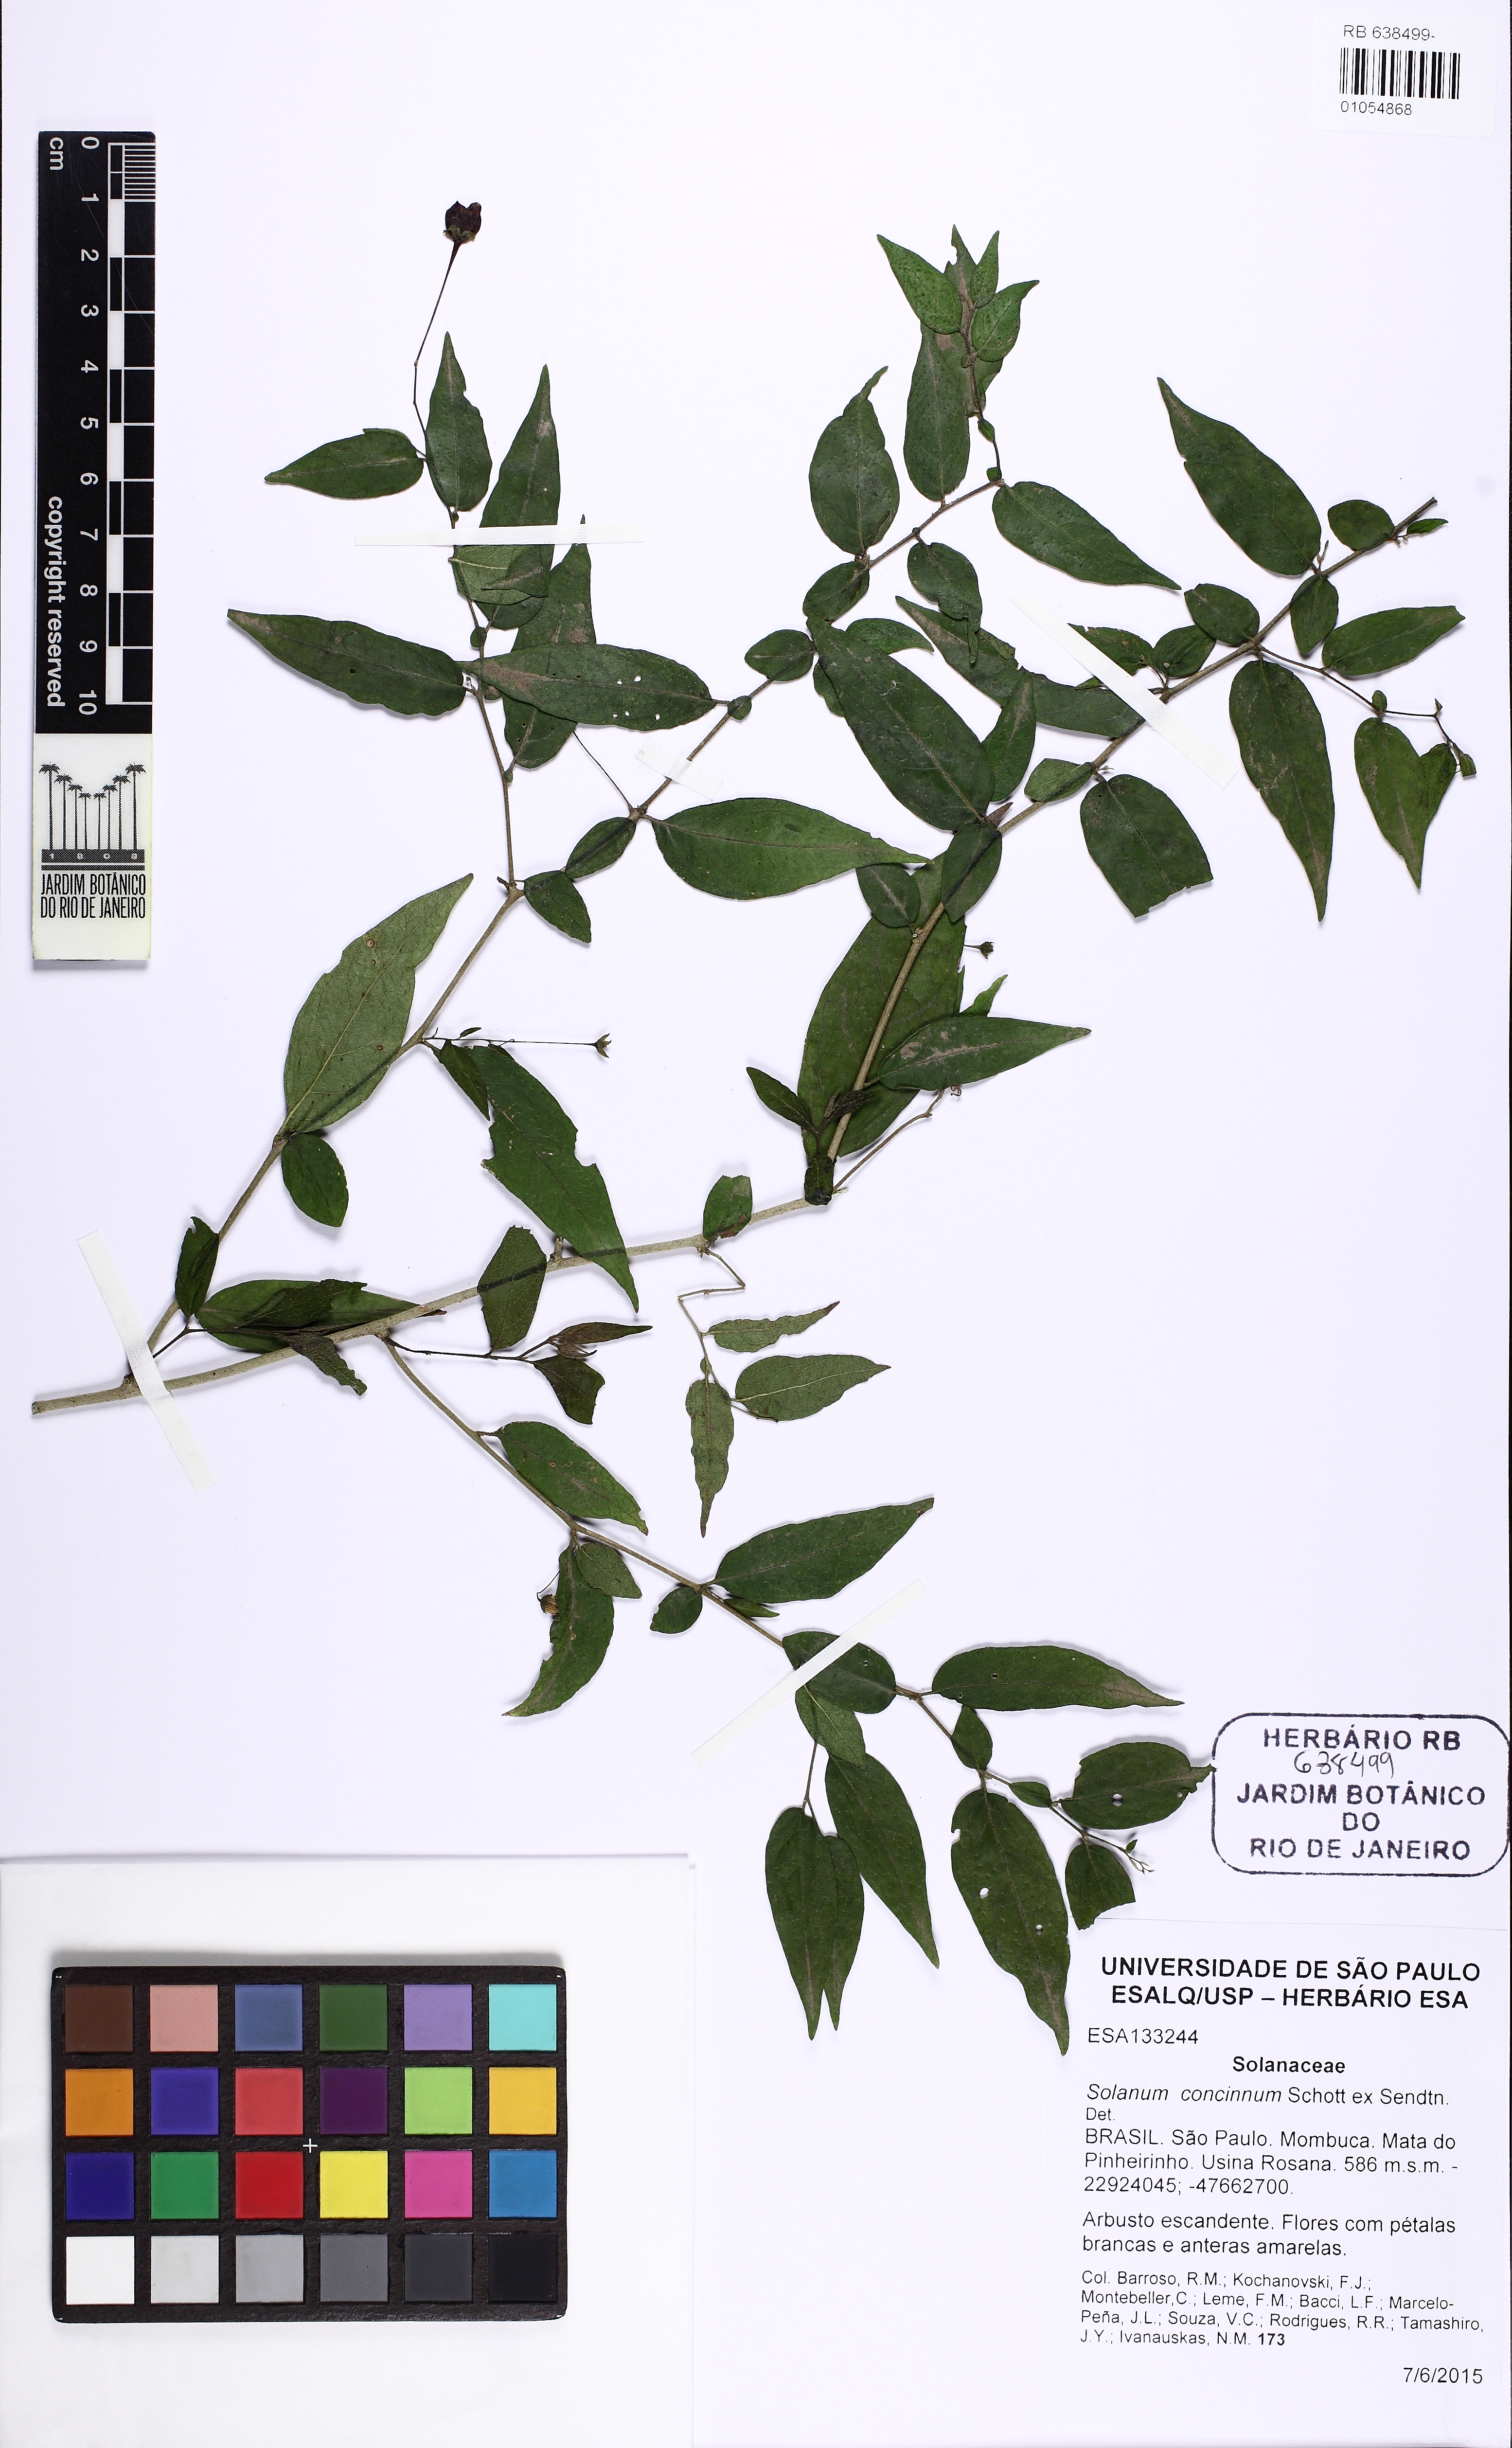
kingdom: Plantae
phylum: Tracheophyta
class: Magnoliopsida
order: Solanales
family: Solanaceae
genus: Solanum
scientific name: Solanum concinnum
